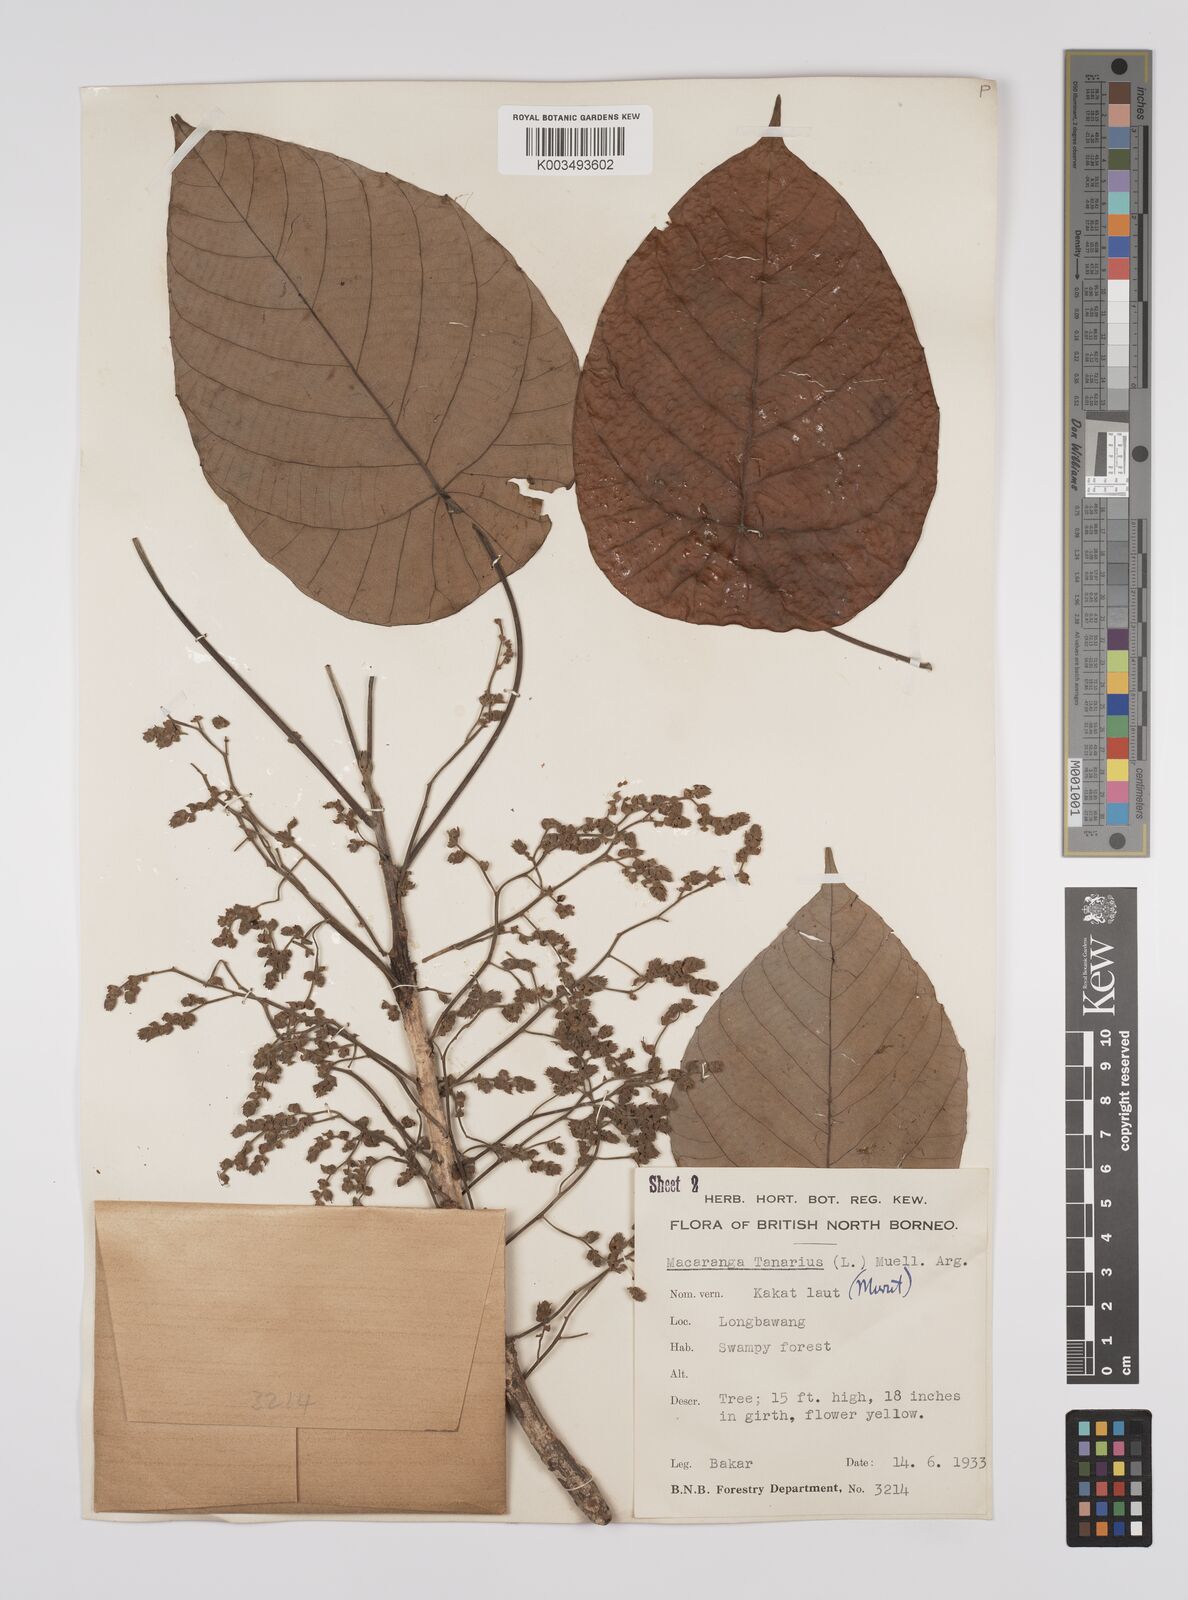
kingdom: Plantae
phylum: Tracheophyta
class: Magnoliopsida
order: Malpighiales
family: Euphorbiaceae
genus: Macaranga
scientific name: Macaranga tanarius
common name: Parasol leaf tree
